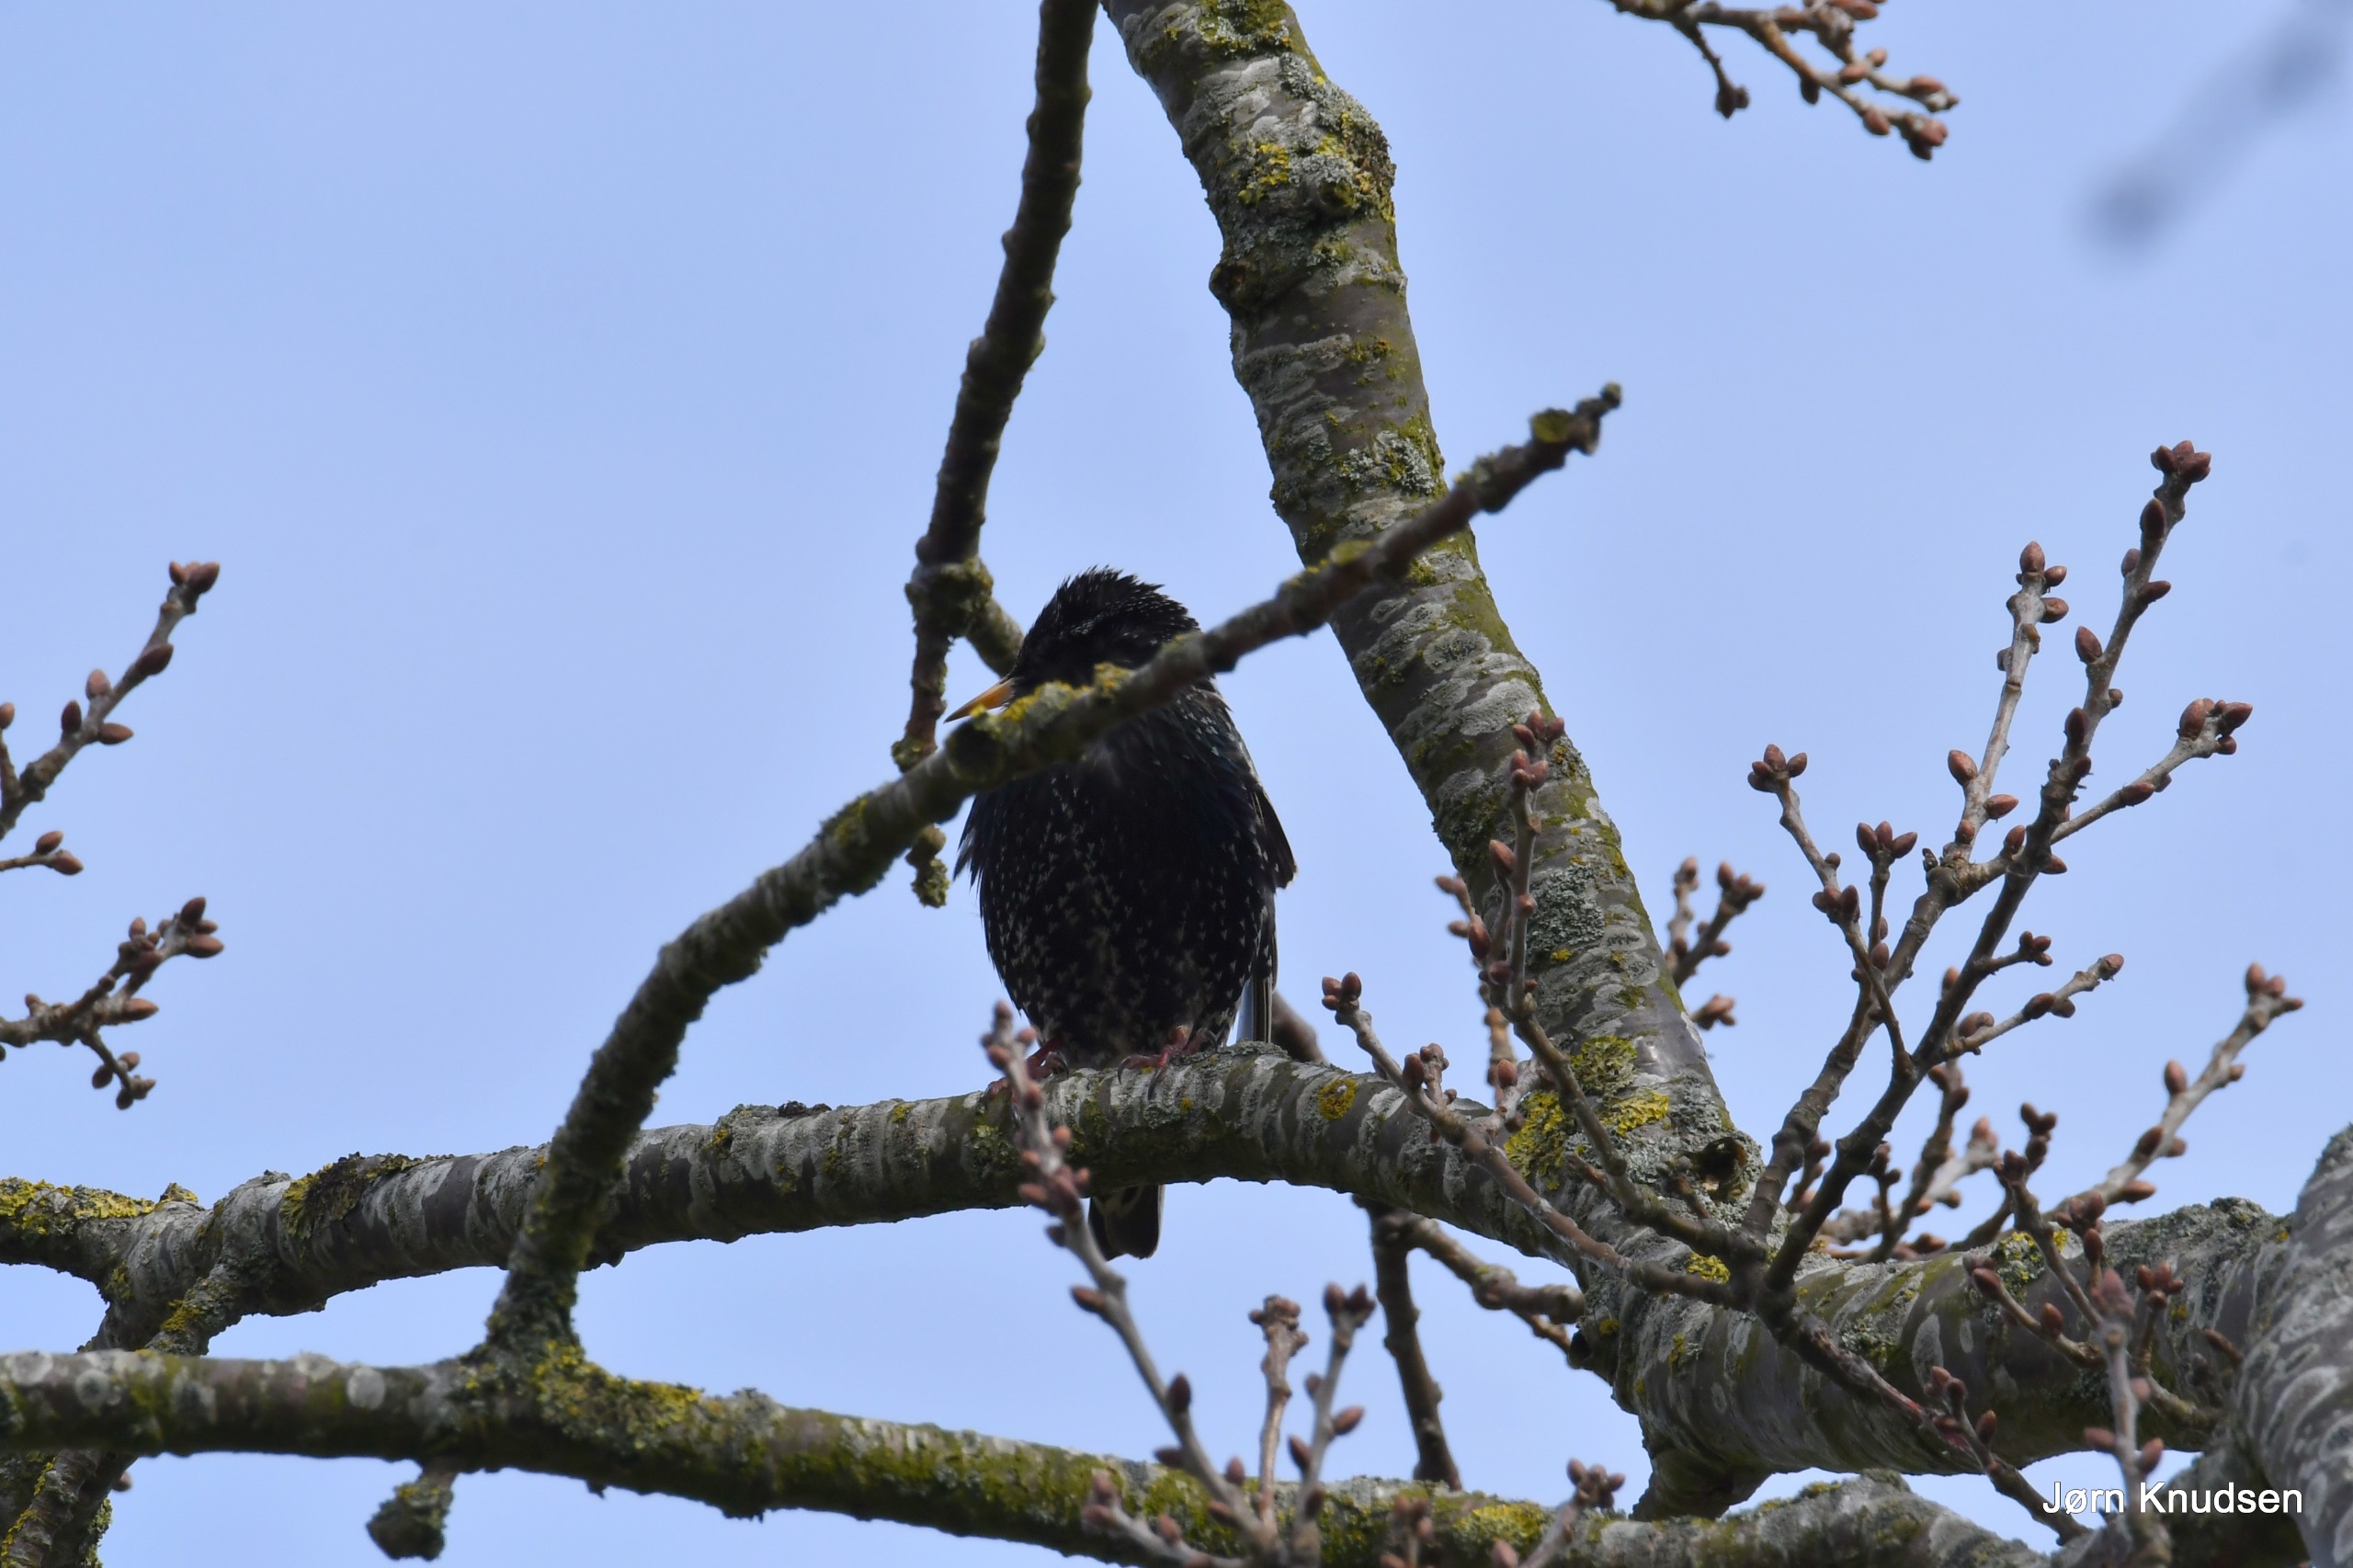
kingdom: Animalia
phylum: Chordata
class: Aves
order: Passeriformes
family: Sturnidae
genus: Sturnus
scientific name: Sturnus vulgaris
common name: Stær
